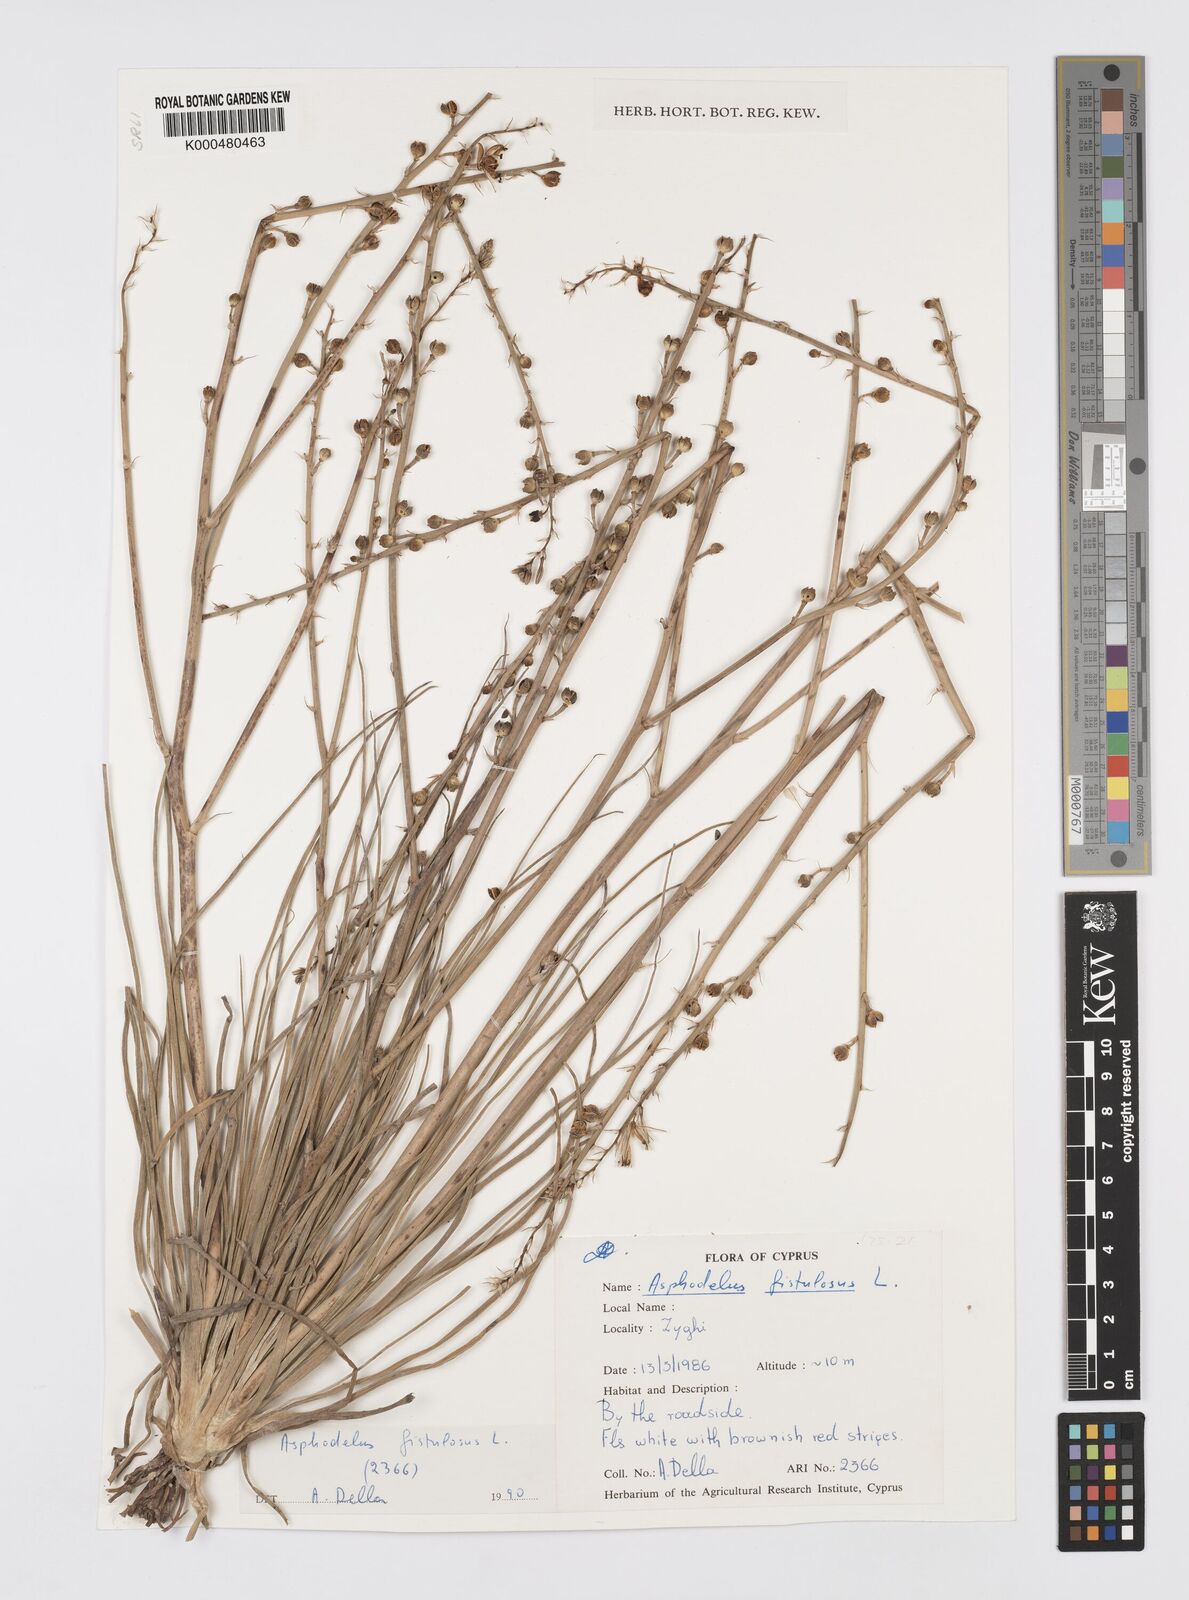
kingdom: Plantae
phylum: Tracheophyta
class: Liliopsida
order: Asparagales
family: Asphodelaceae
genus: Asphodelus
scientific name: Asphodelus fistulosus
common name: Onionweed
